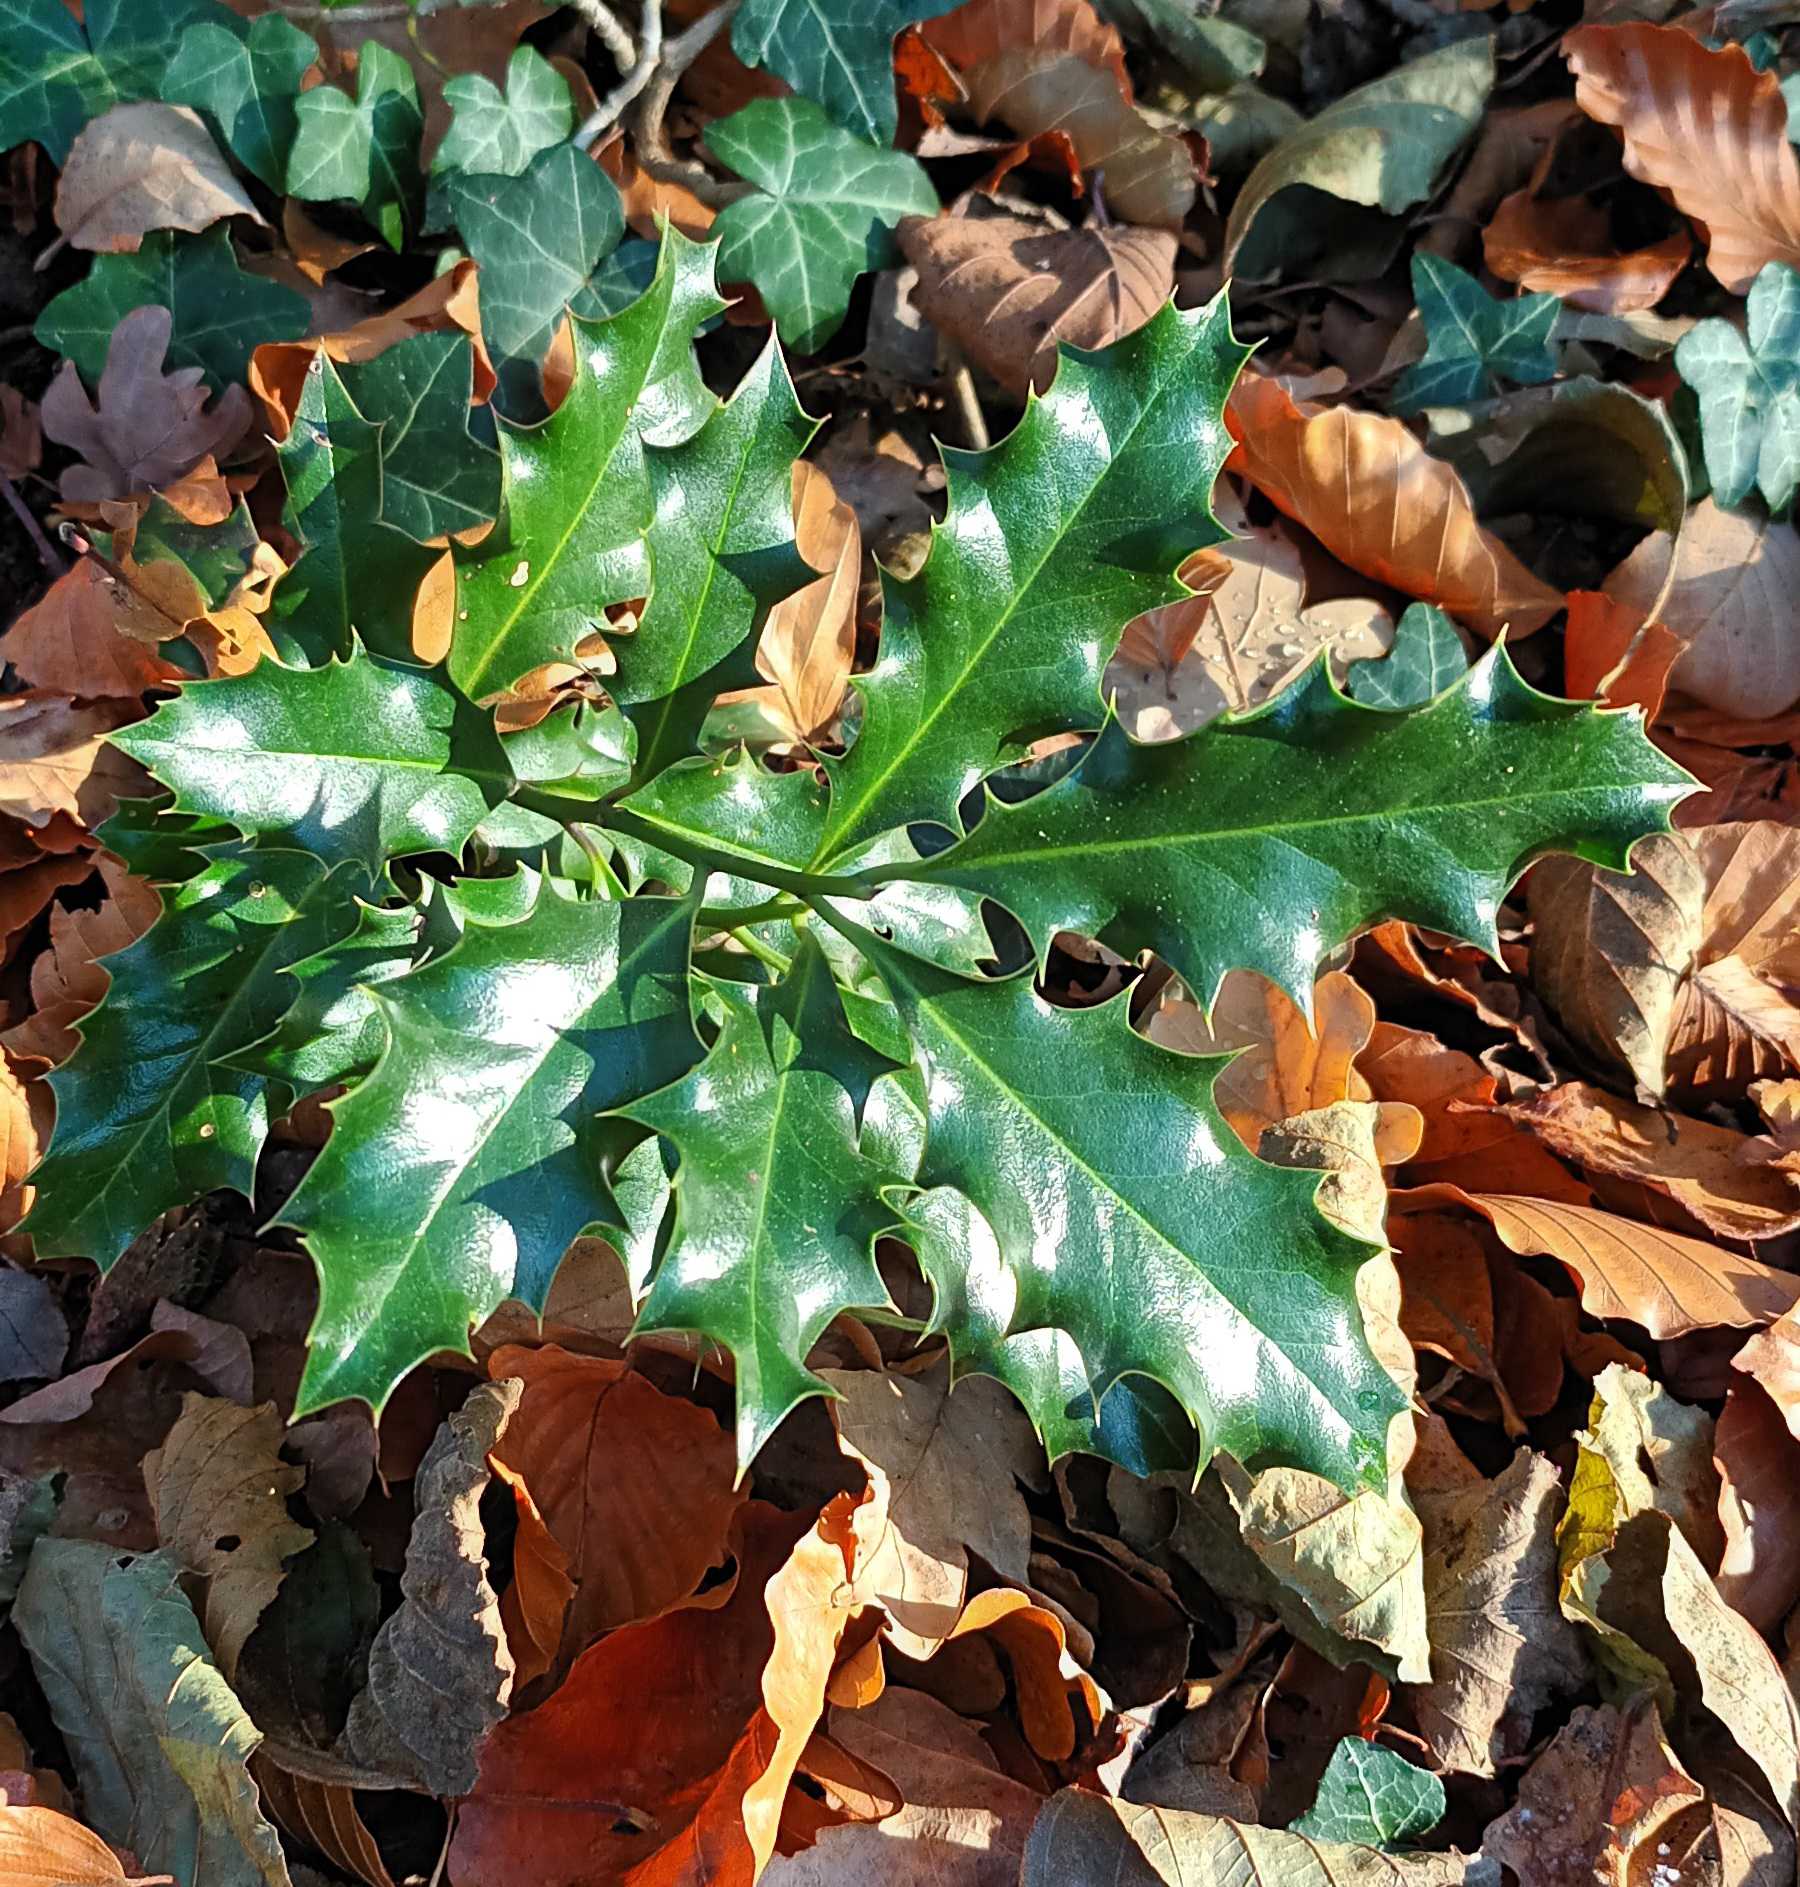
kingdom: Plantae
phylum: Tracheophyta
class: Magnoliopsida
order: Aquifoliales
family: Aquifoliaceae
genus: Ilex
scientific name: Ilex aquifolium
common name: Kristtorn
